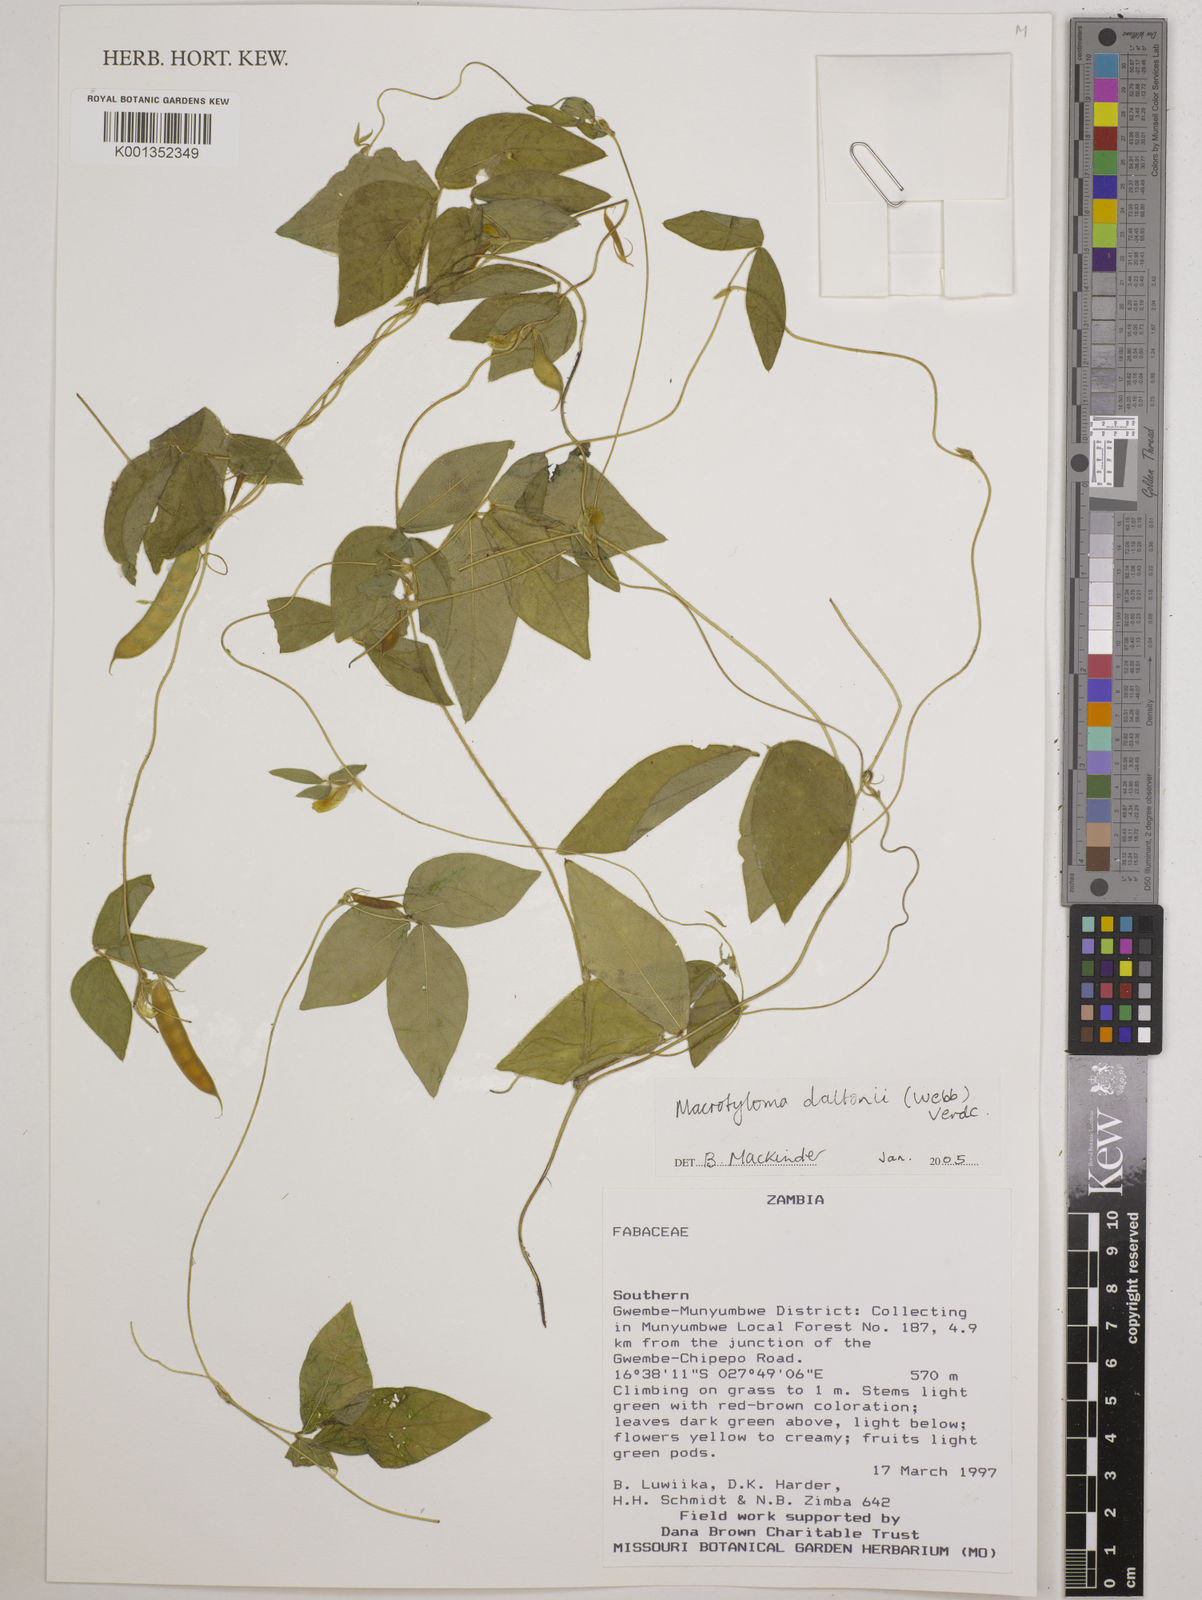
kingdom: Plantae
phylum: Tracheophyta
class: Magnoliopsida
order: Fabales
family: Fabaceae
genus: Macrotyloma
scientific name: Macrotyloma daltonii
